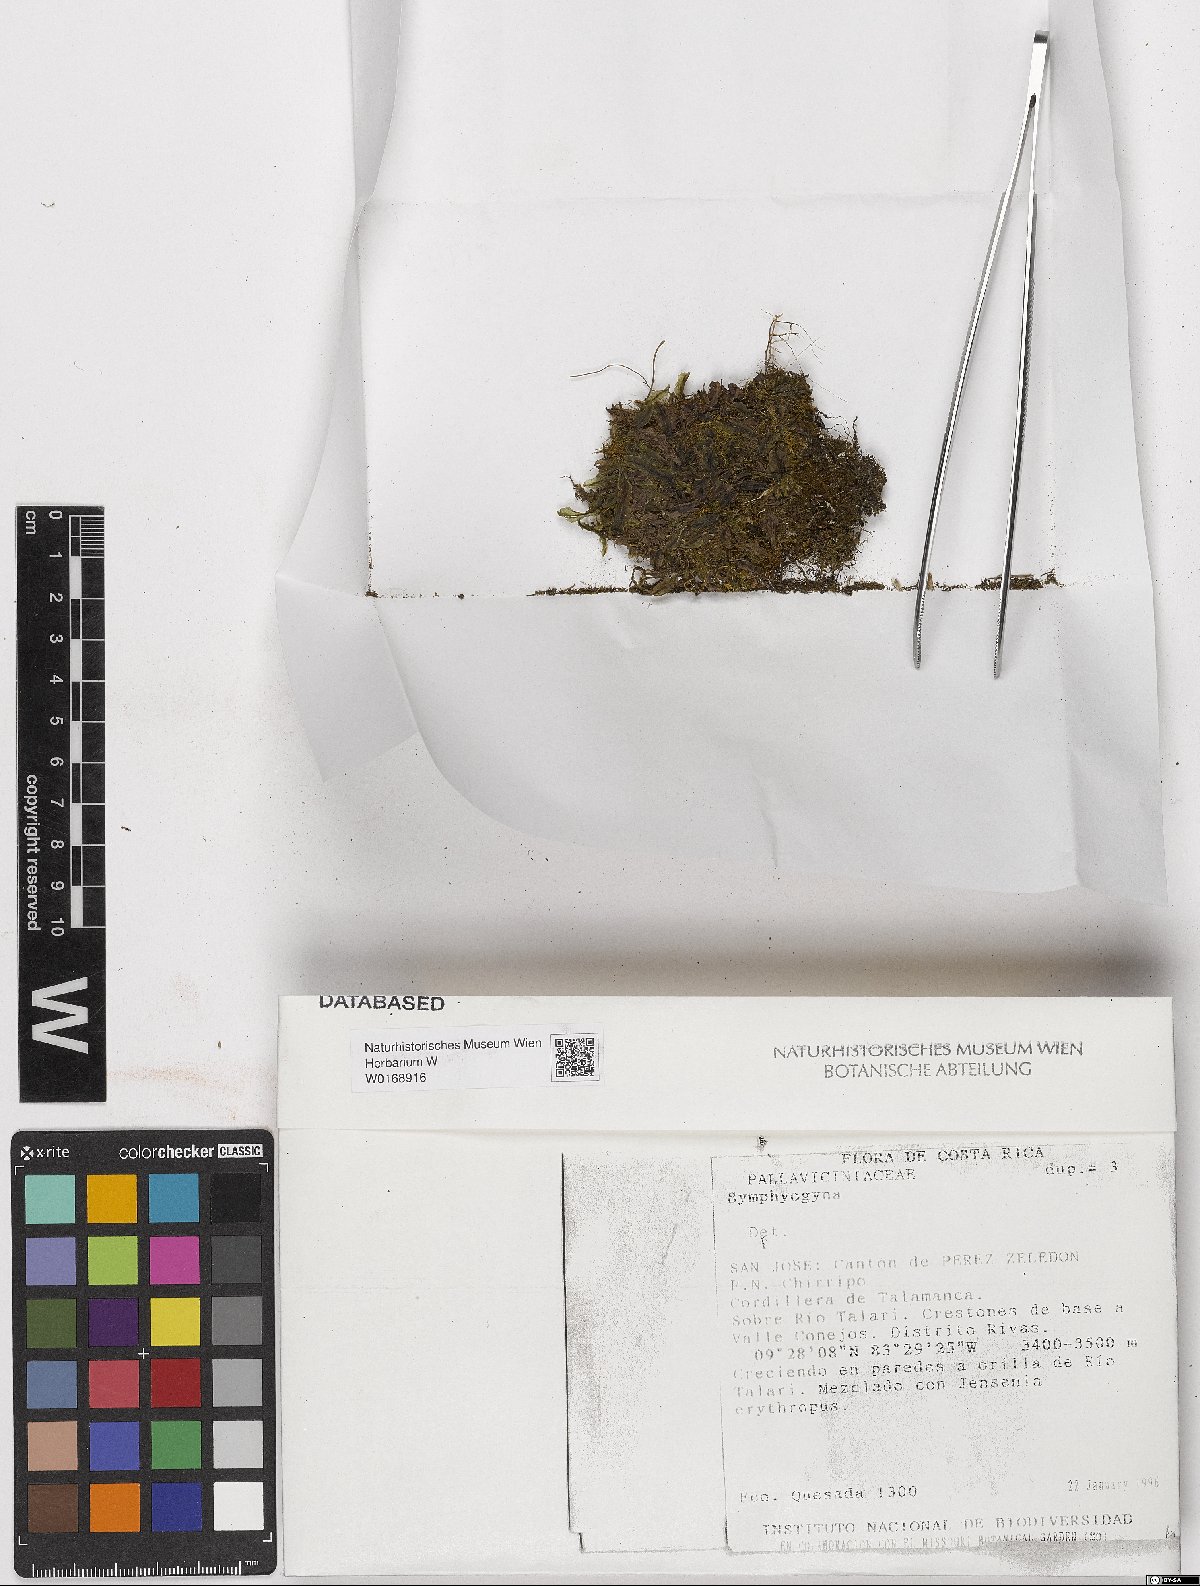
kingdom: Plantae
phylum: Marchantiophyta
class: Jungermanniopsida
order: Pallaviciniales
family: Pallaviciniaceae
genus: Symphyogyna
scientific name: Symphyogyna
